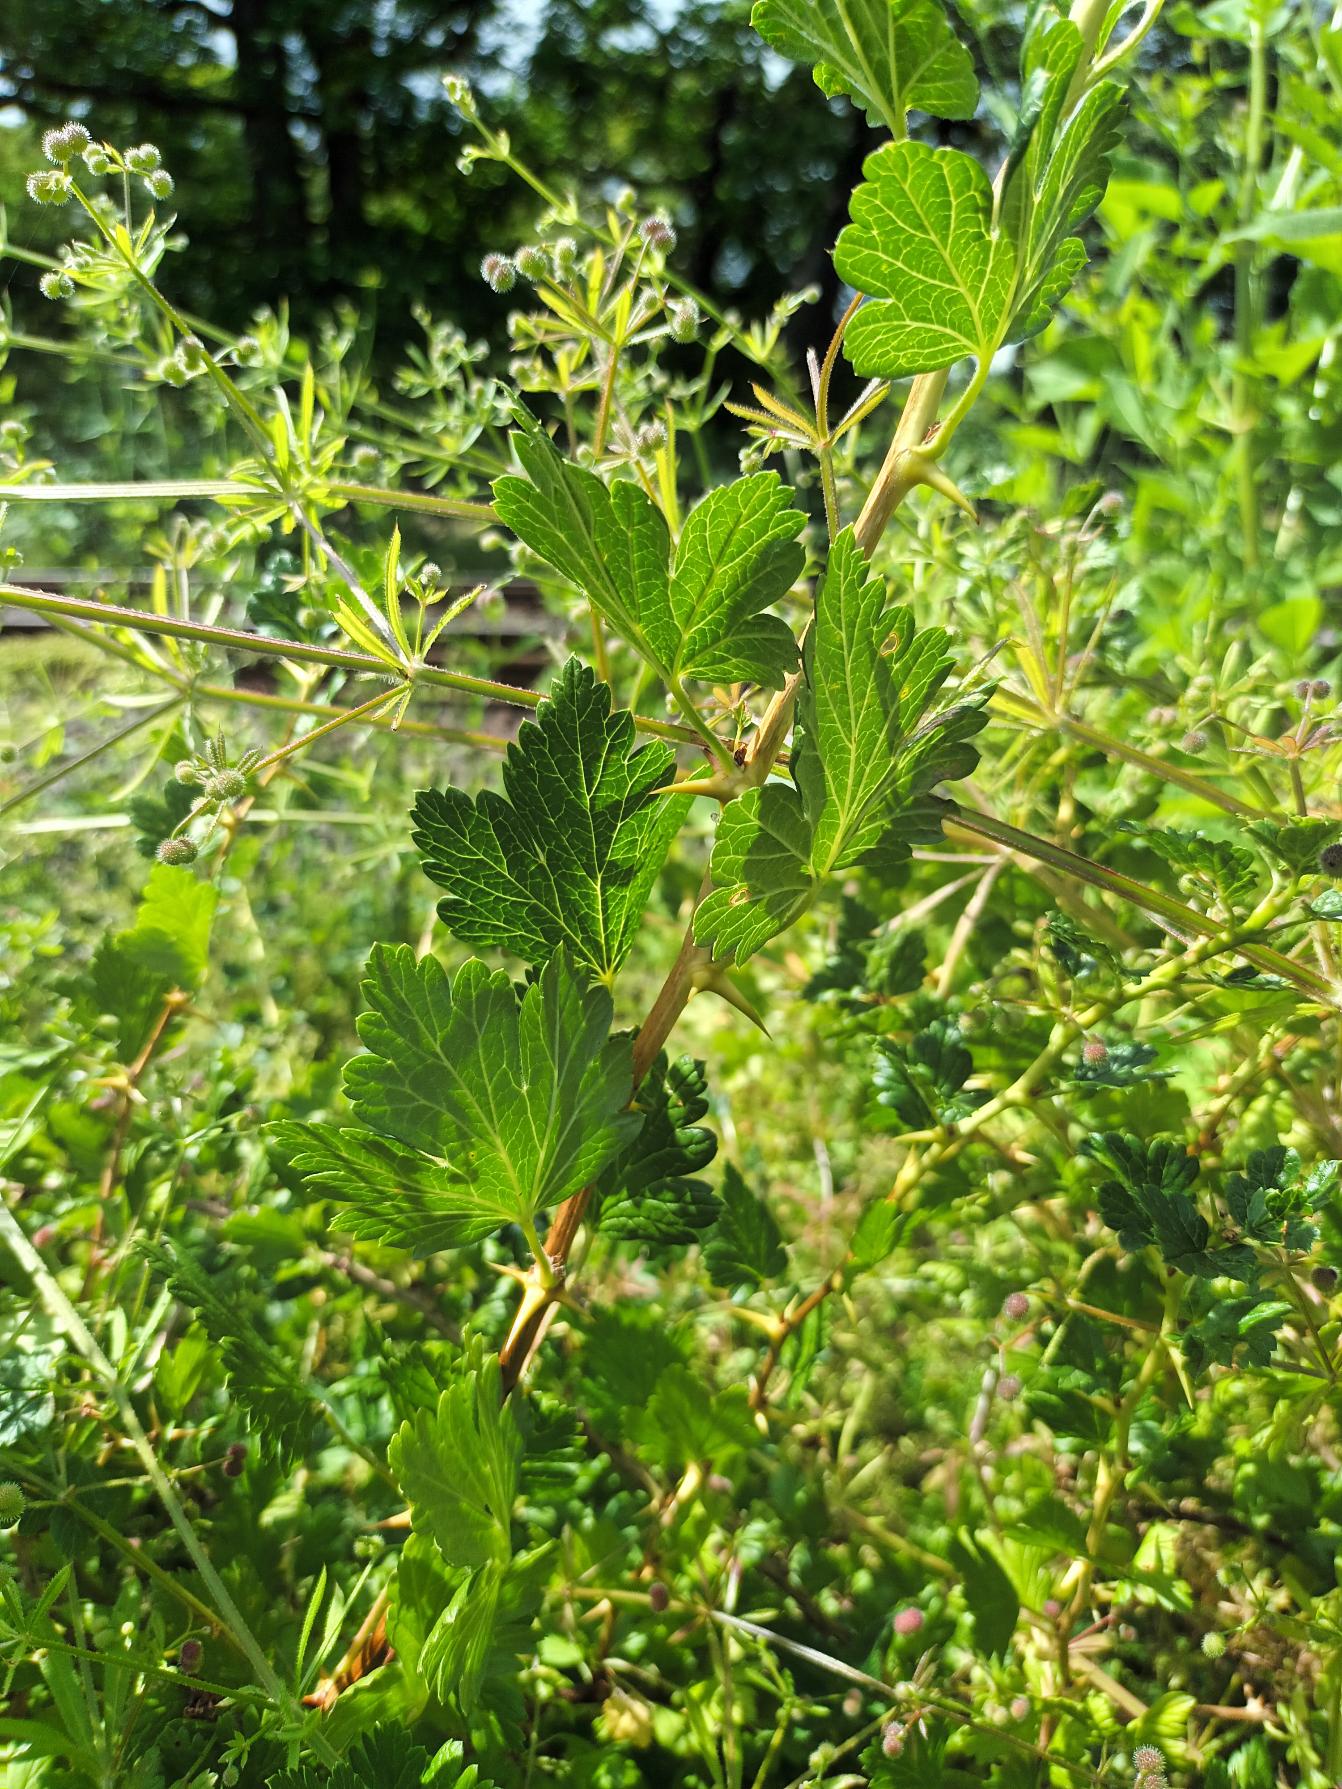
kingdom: Plantae
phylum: Tracheophyta
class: Magnoliopsida
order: Saxifragales
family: Grossulariaceae
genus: Ribes
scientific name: Ribes uva-crispa
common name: Stikkelsbær
